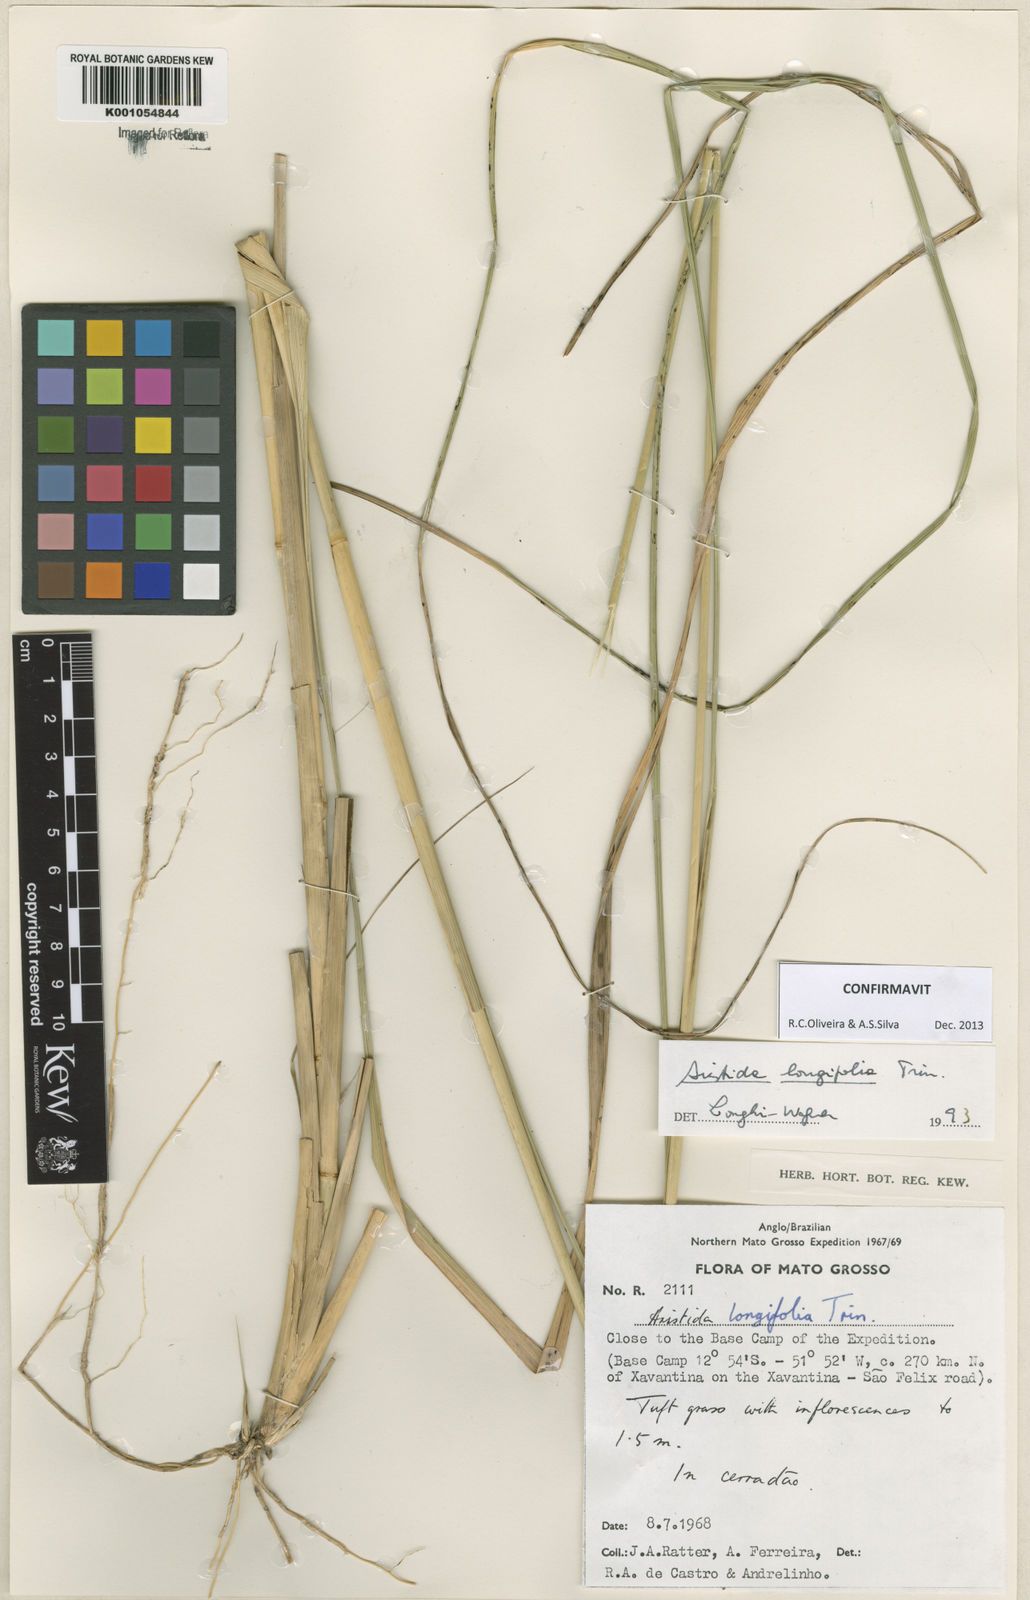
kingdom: Plantae
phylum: Tracheophyta
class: Liliopsida
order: Poales
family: Poaceae
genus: Aristida
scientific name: Aristida longifolia
